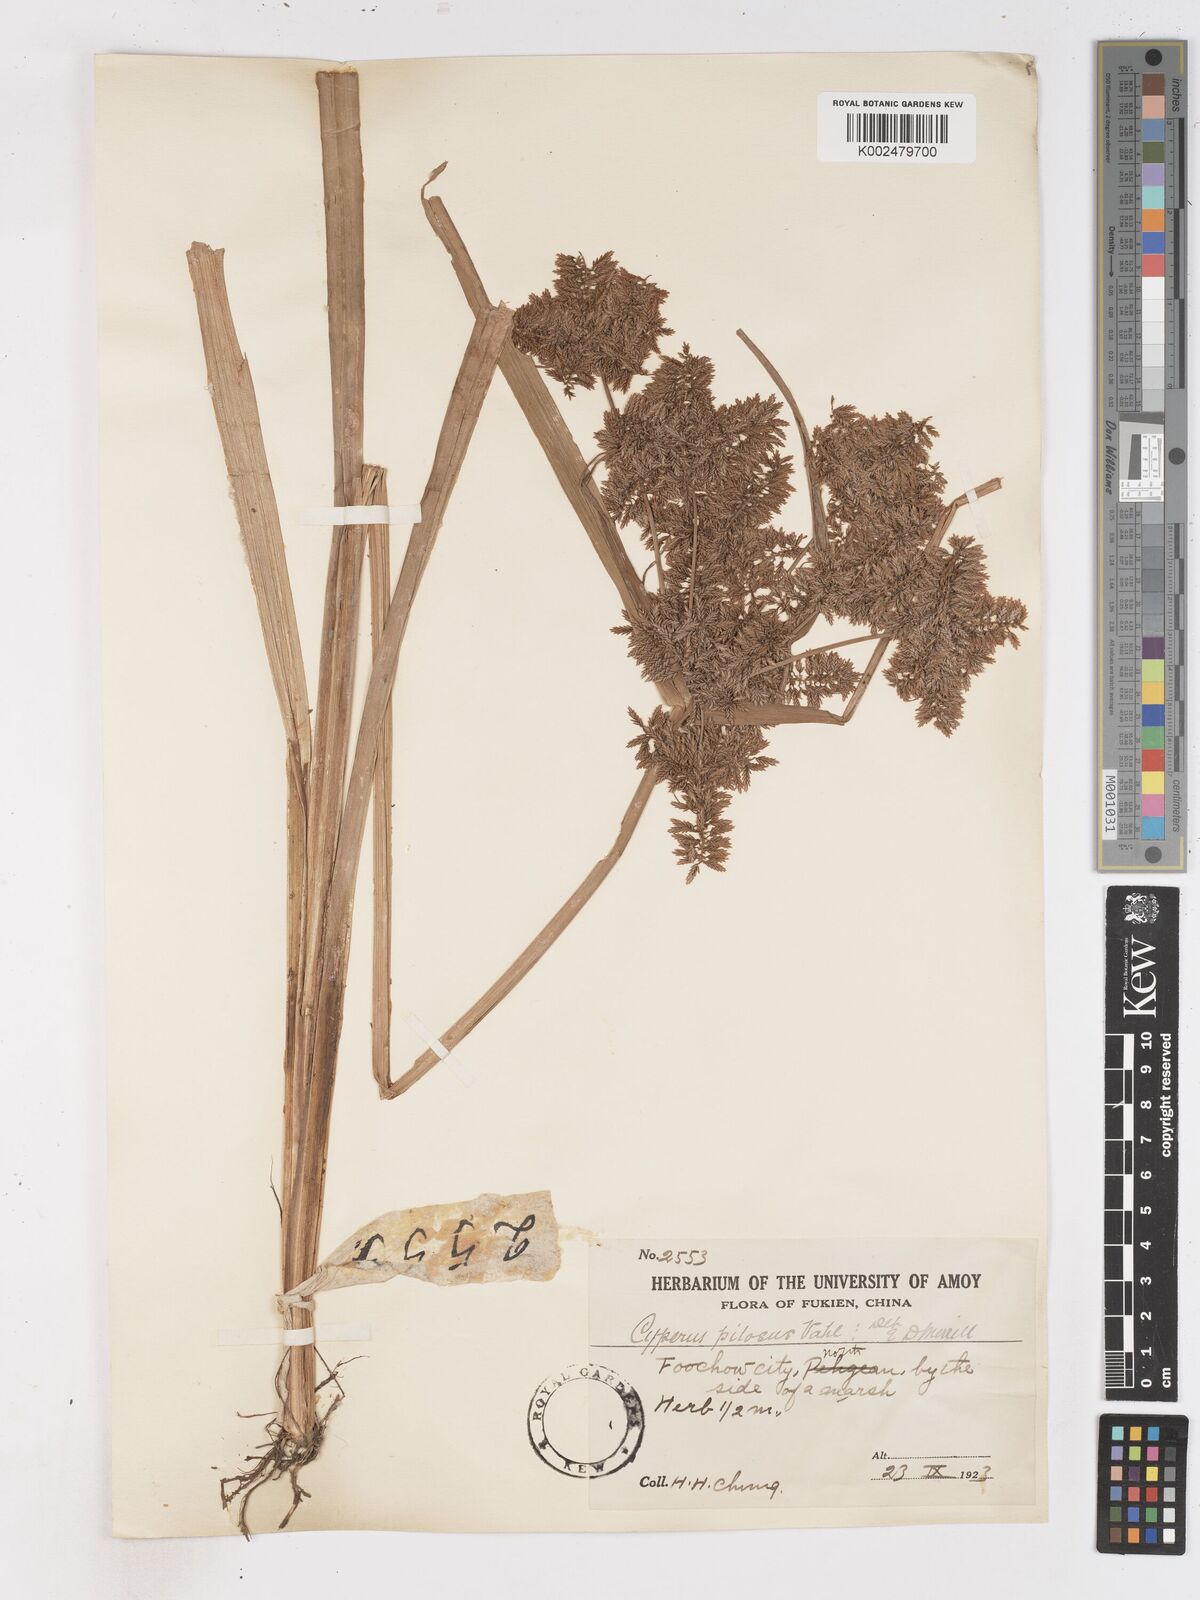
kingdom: Plantae
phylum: Tracheophyta
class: Liliopsida
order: Poales
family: Cyperaceae
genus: Cyperus
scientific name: Cyperus pilosus
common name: Fuzzy flatsedge
